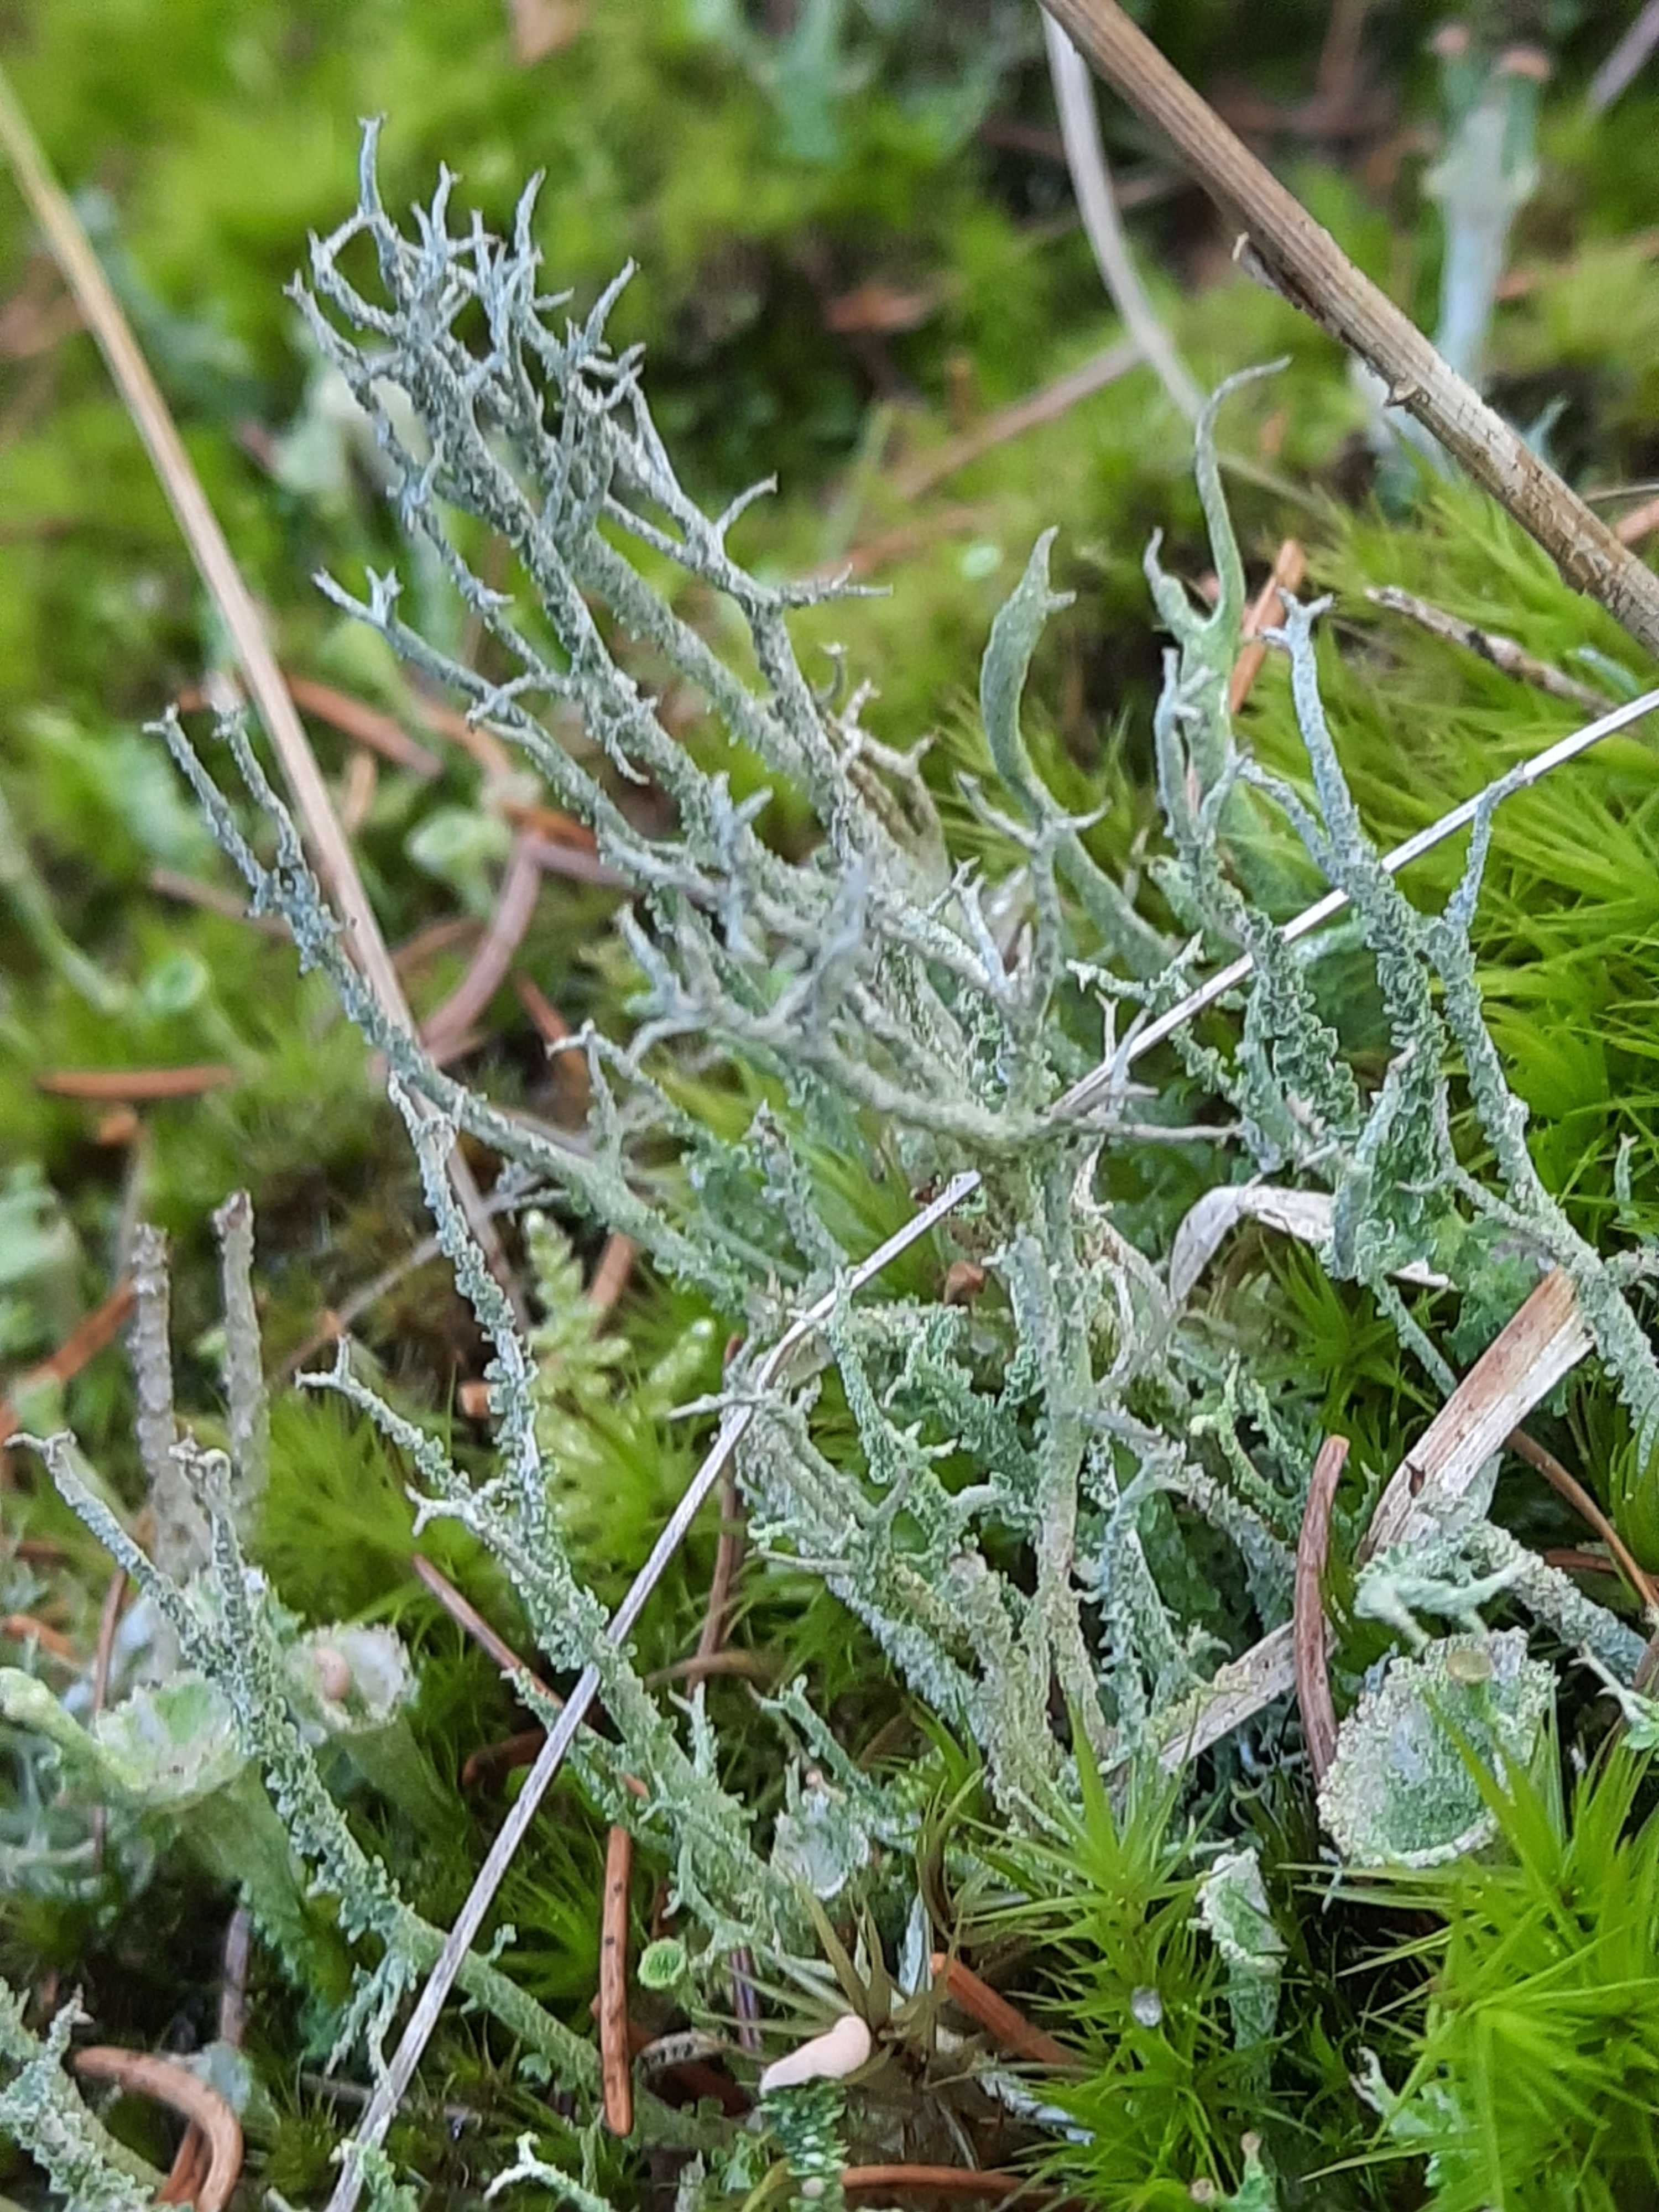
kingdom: Fungi
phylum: Ascomycota
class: Lecanoromycetes
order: Lecanorales
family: Cladoniaceae
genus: Cladonia
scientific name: Cladonia scabriuscula
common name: ru bægerlav
